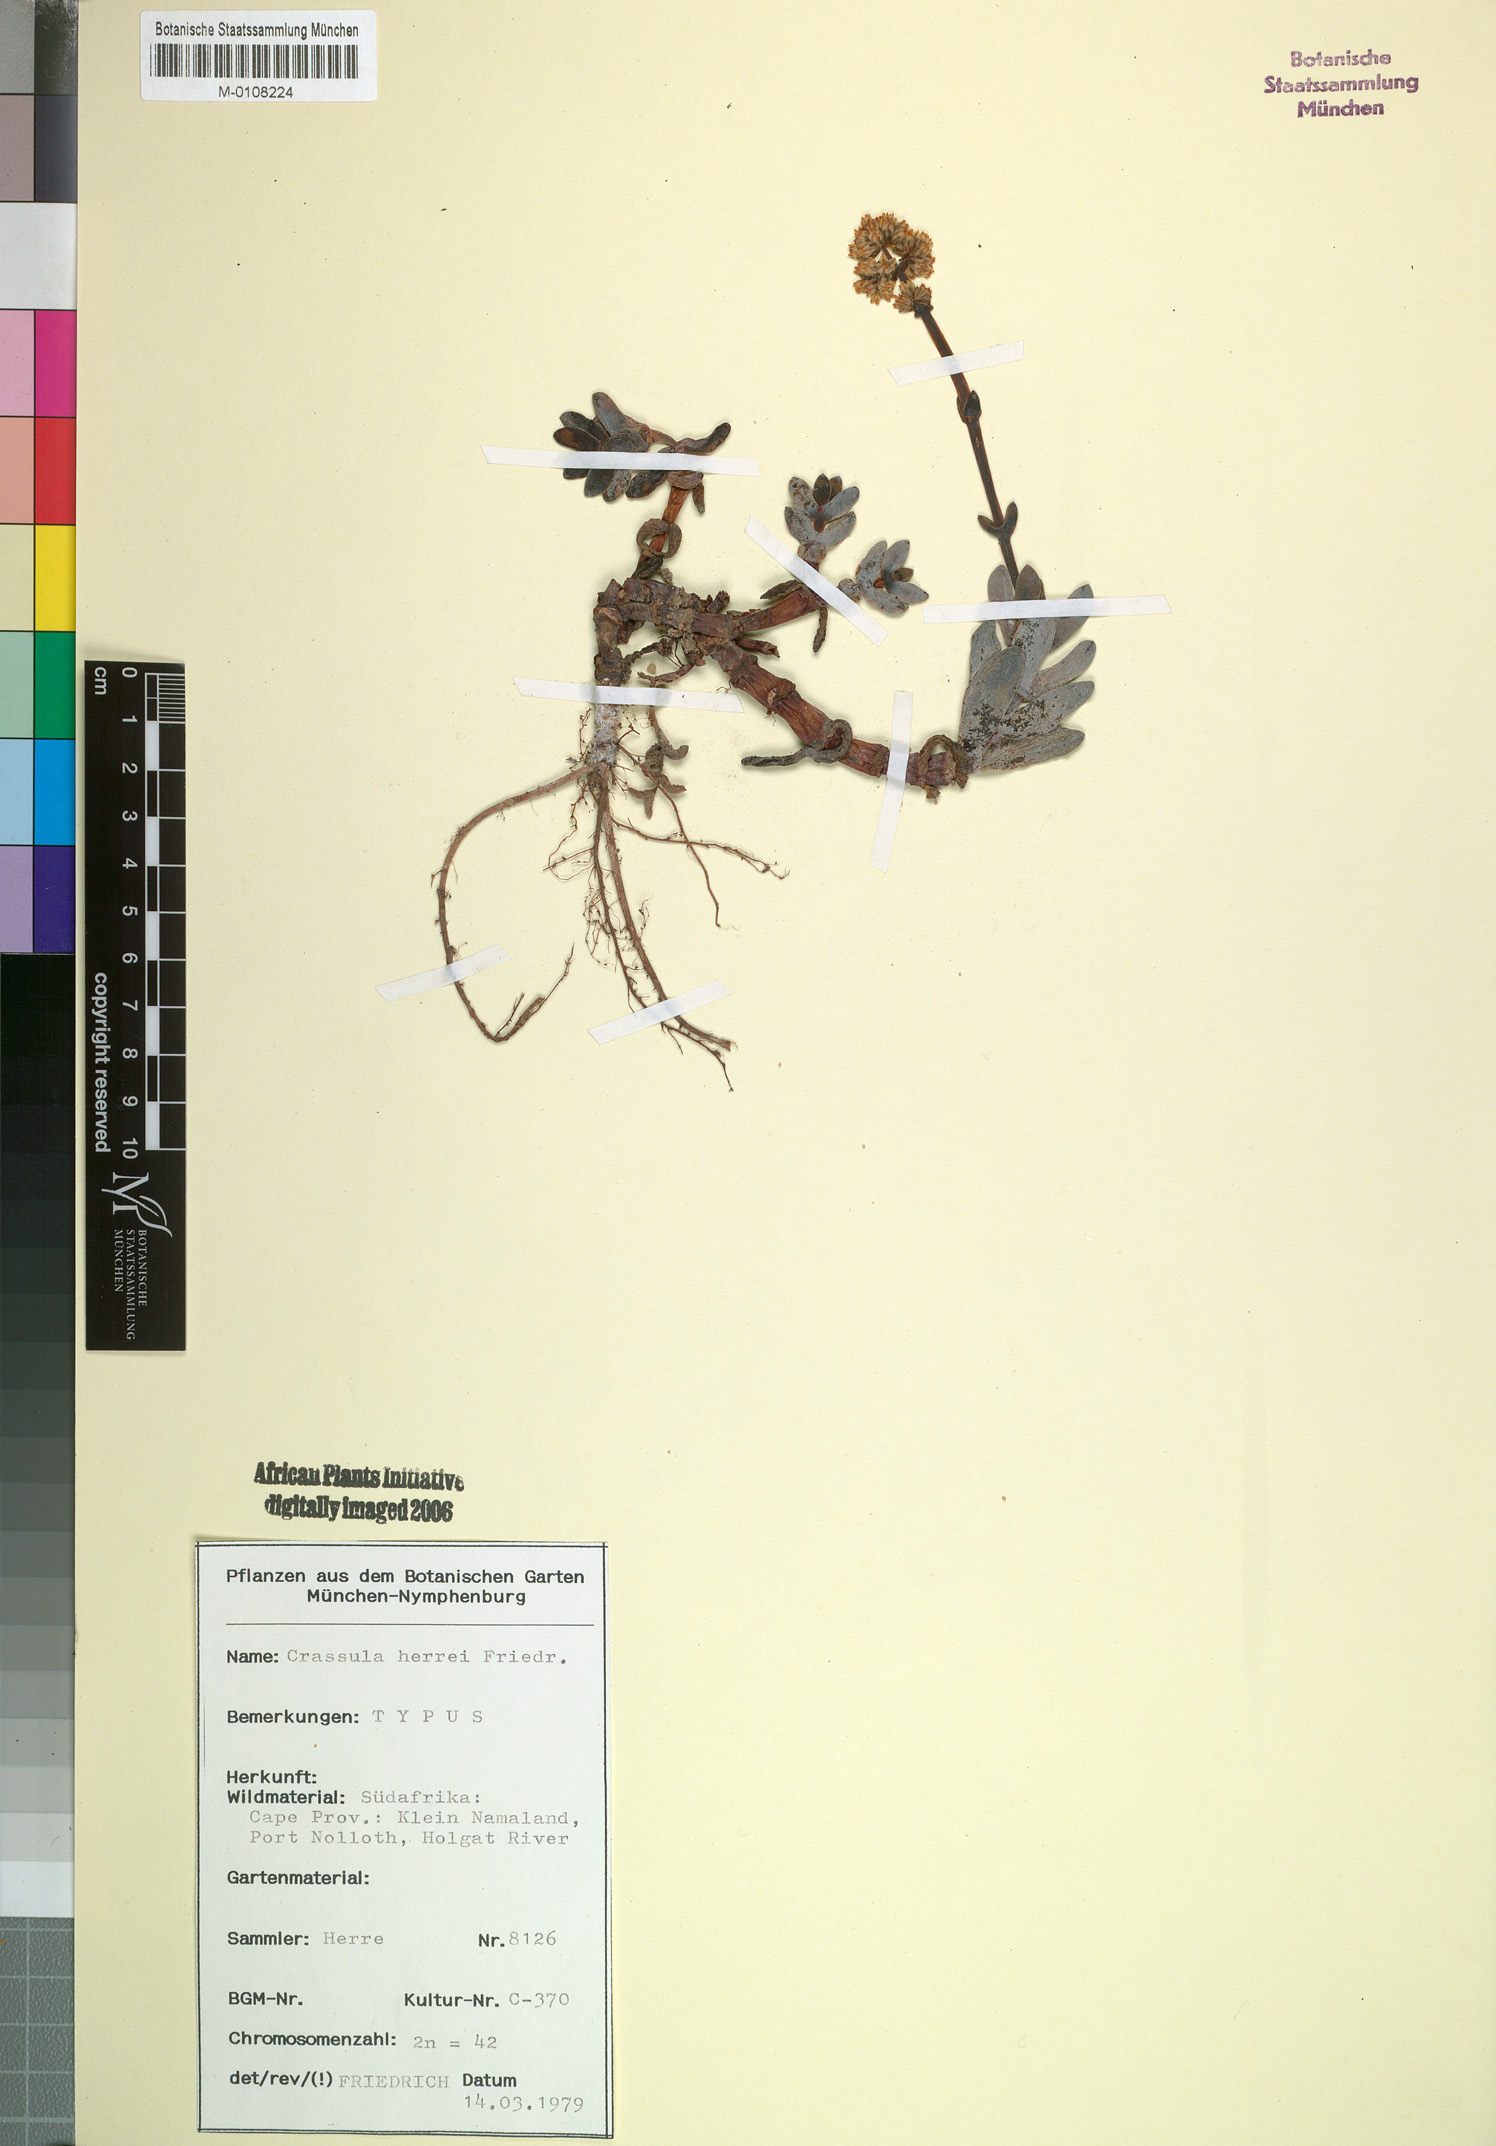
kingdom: Plantae
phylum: Tracheophyta
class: Magnoliopsida
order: Saxifragales
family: Crassulaceae
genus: Crassula
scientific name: Crassula nudicaulis
